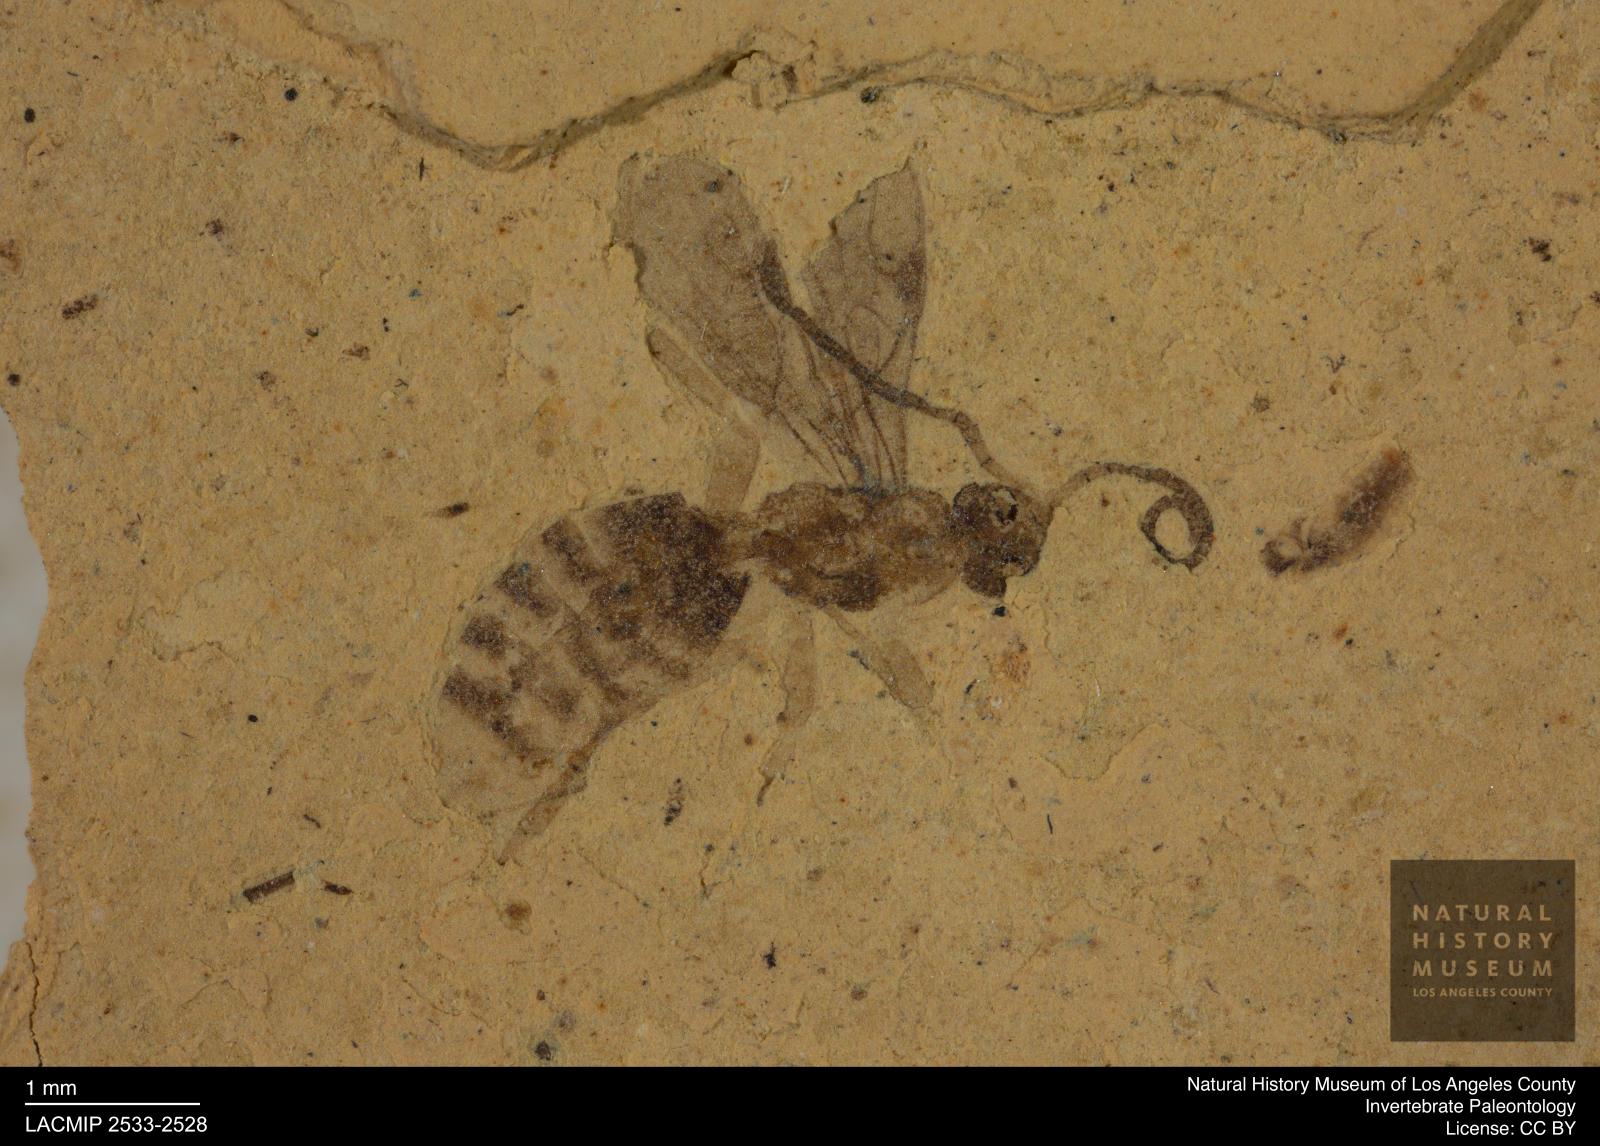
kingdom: Animalia
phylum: Arthropoda
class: Insecta
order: Hymenoptera
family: Braconidae
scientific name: Braconidae
